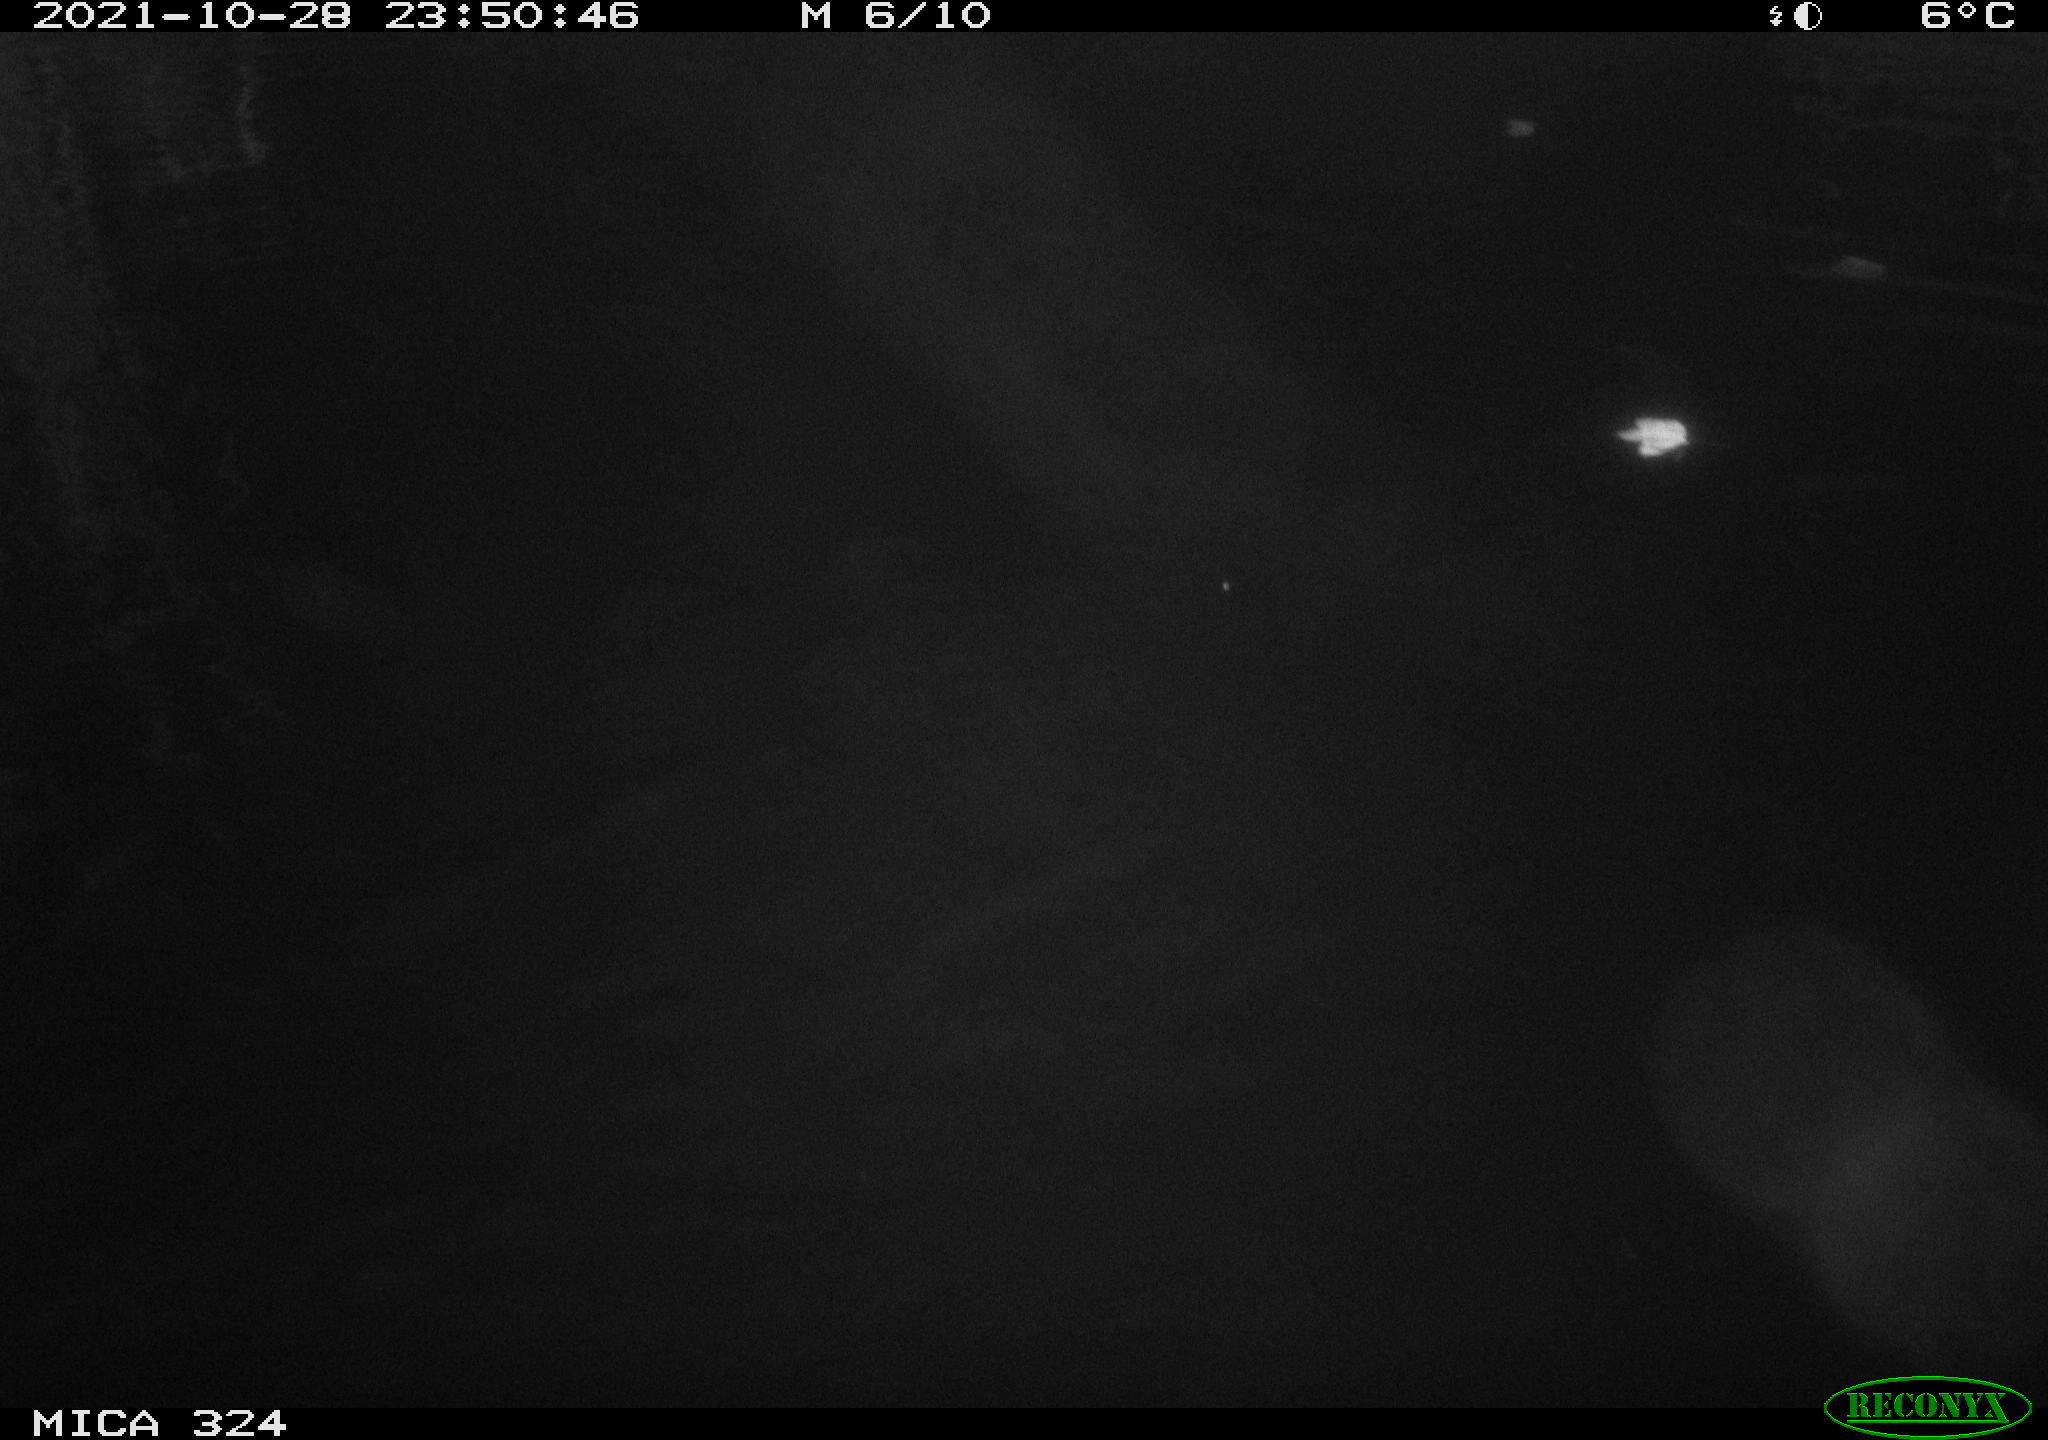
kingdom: Animalia
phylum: Chordata
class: Mammalia
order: Rodentia
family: Cricetidae
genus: Ondatra
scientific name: Ondatra zibethicus
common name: Muskrat
